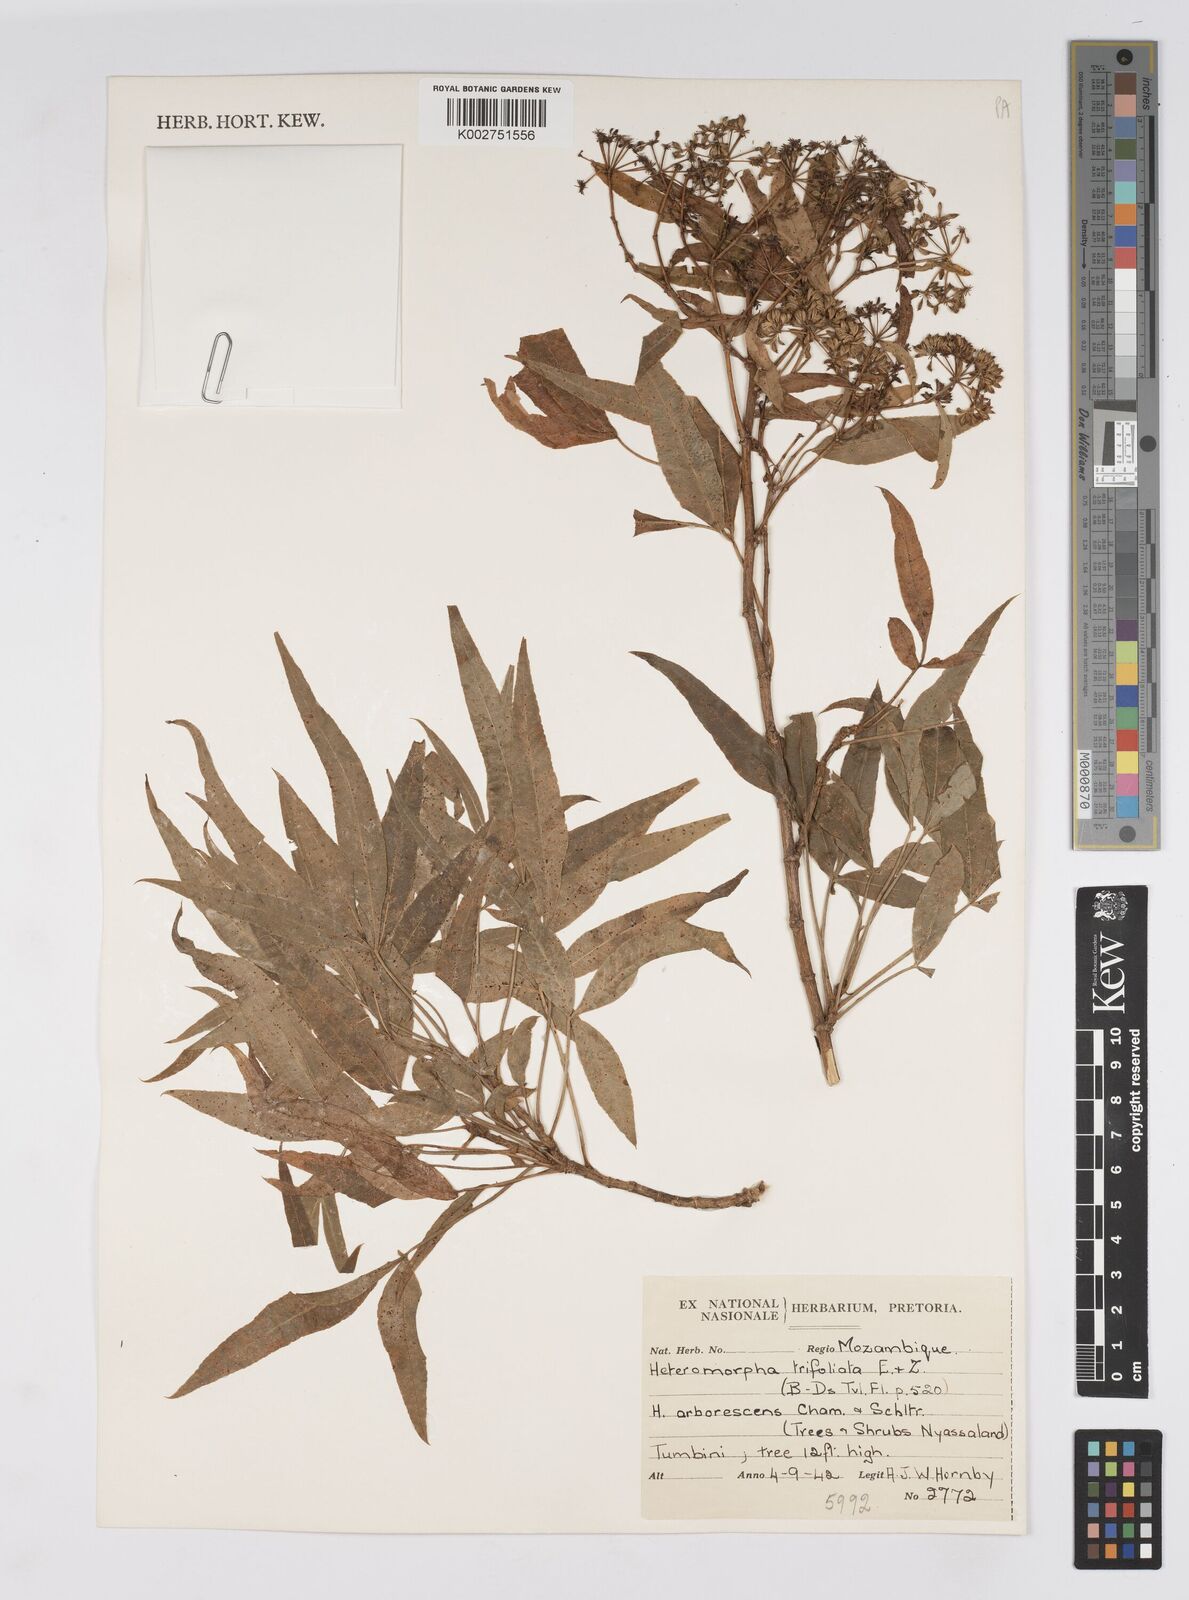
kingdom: Plantae
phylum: Tracheophyta
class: Magnoliopsida
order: Apiales
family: Apiaceae
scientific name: Apiaceae
